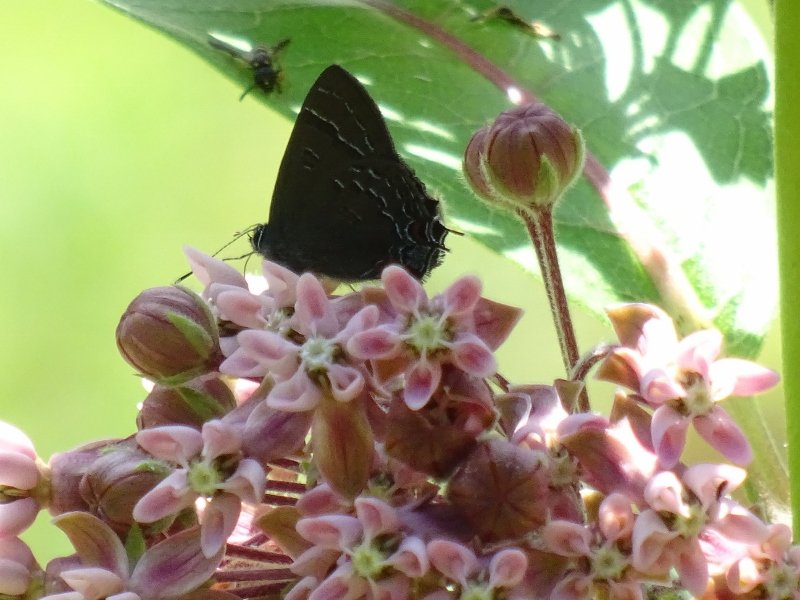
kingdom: Animalia
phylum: Arthropoda
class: Insecta
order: Lepidoptera
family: Lycaenidae
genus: Satyrium
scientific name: Satyrium calanus
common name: Banded Hairstreak
